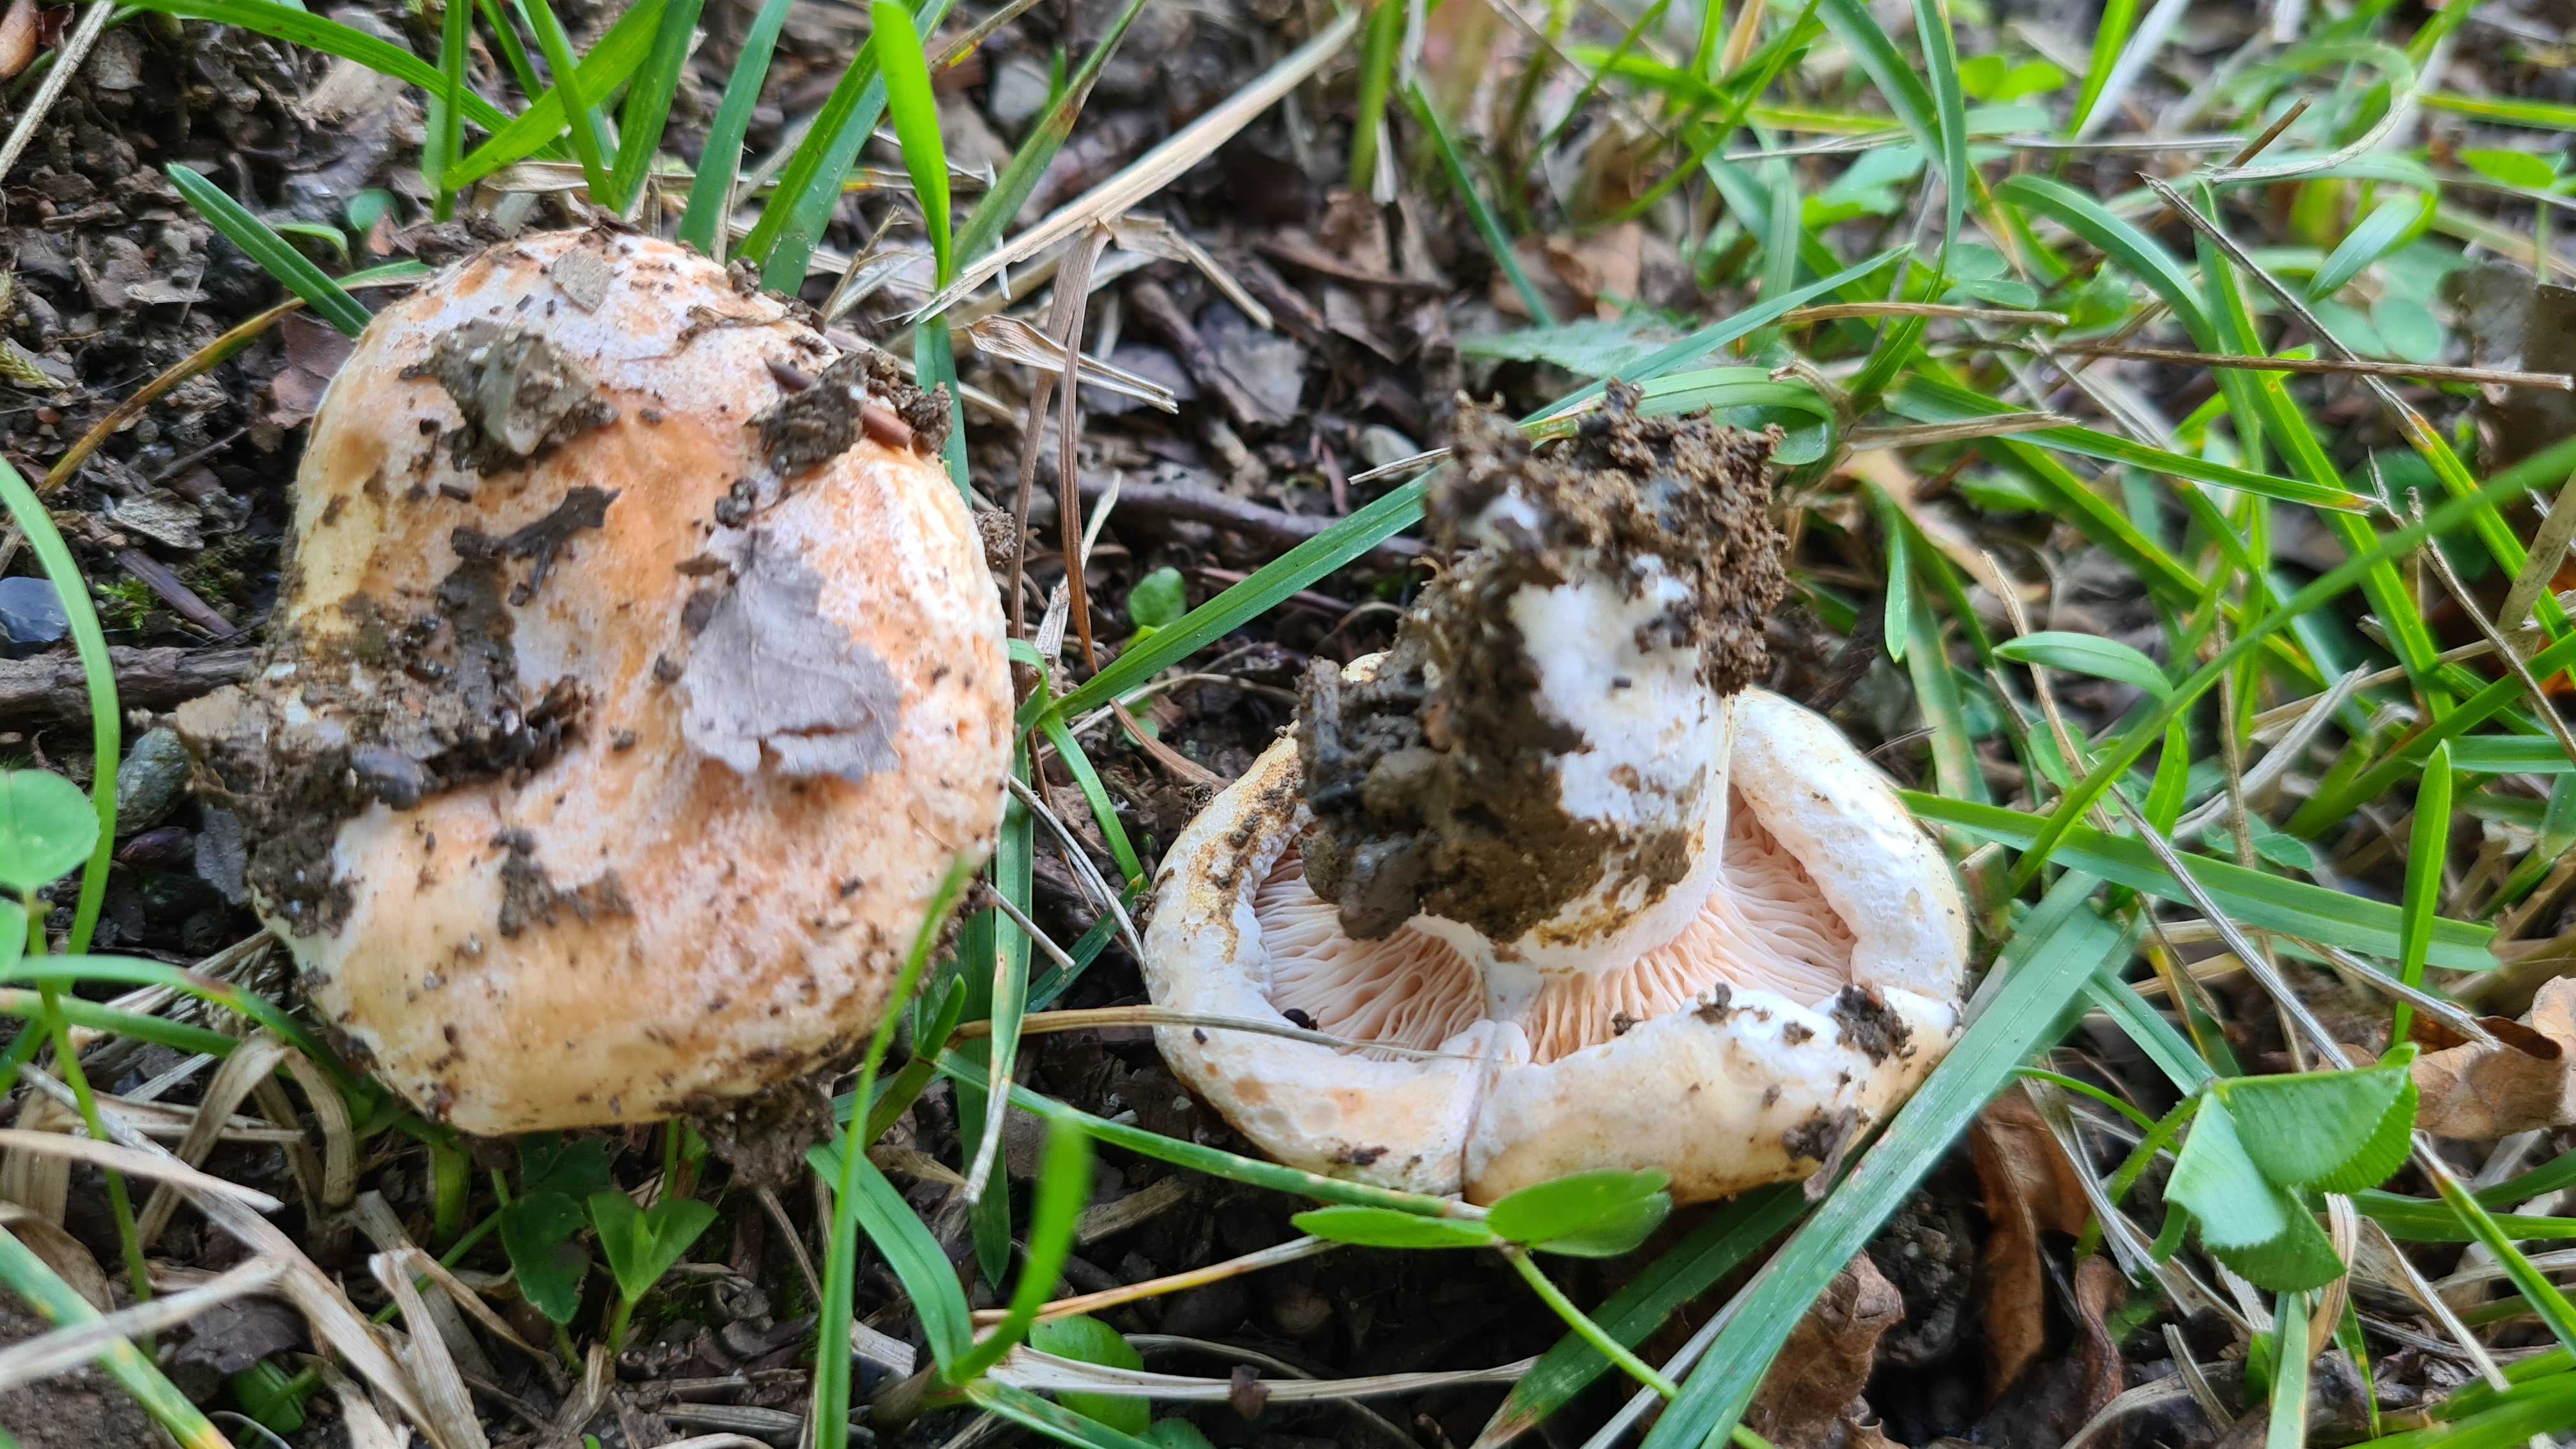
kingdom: Fungi
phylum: Basidiomycota
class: Agaricomycetes
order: Russulales
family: Russulaceae
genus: Lactarius
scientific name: Lactarius acerrimus
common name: brændende mælkehat
